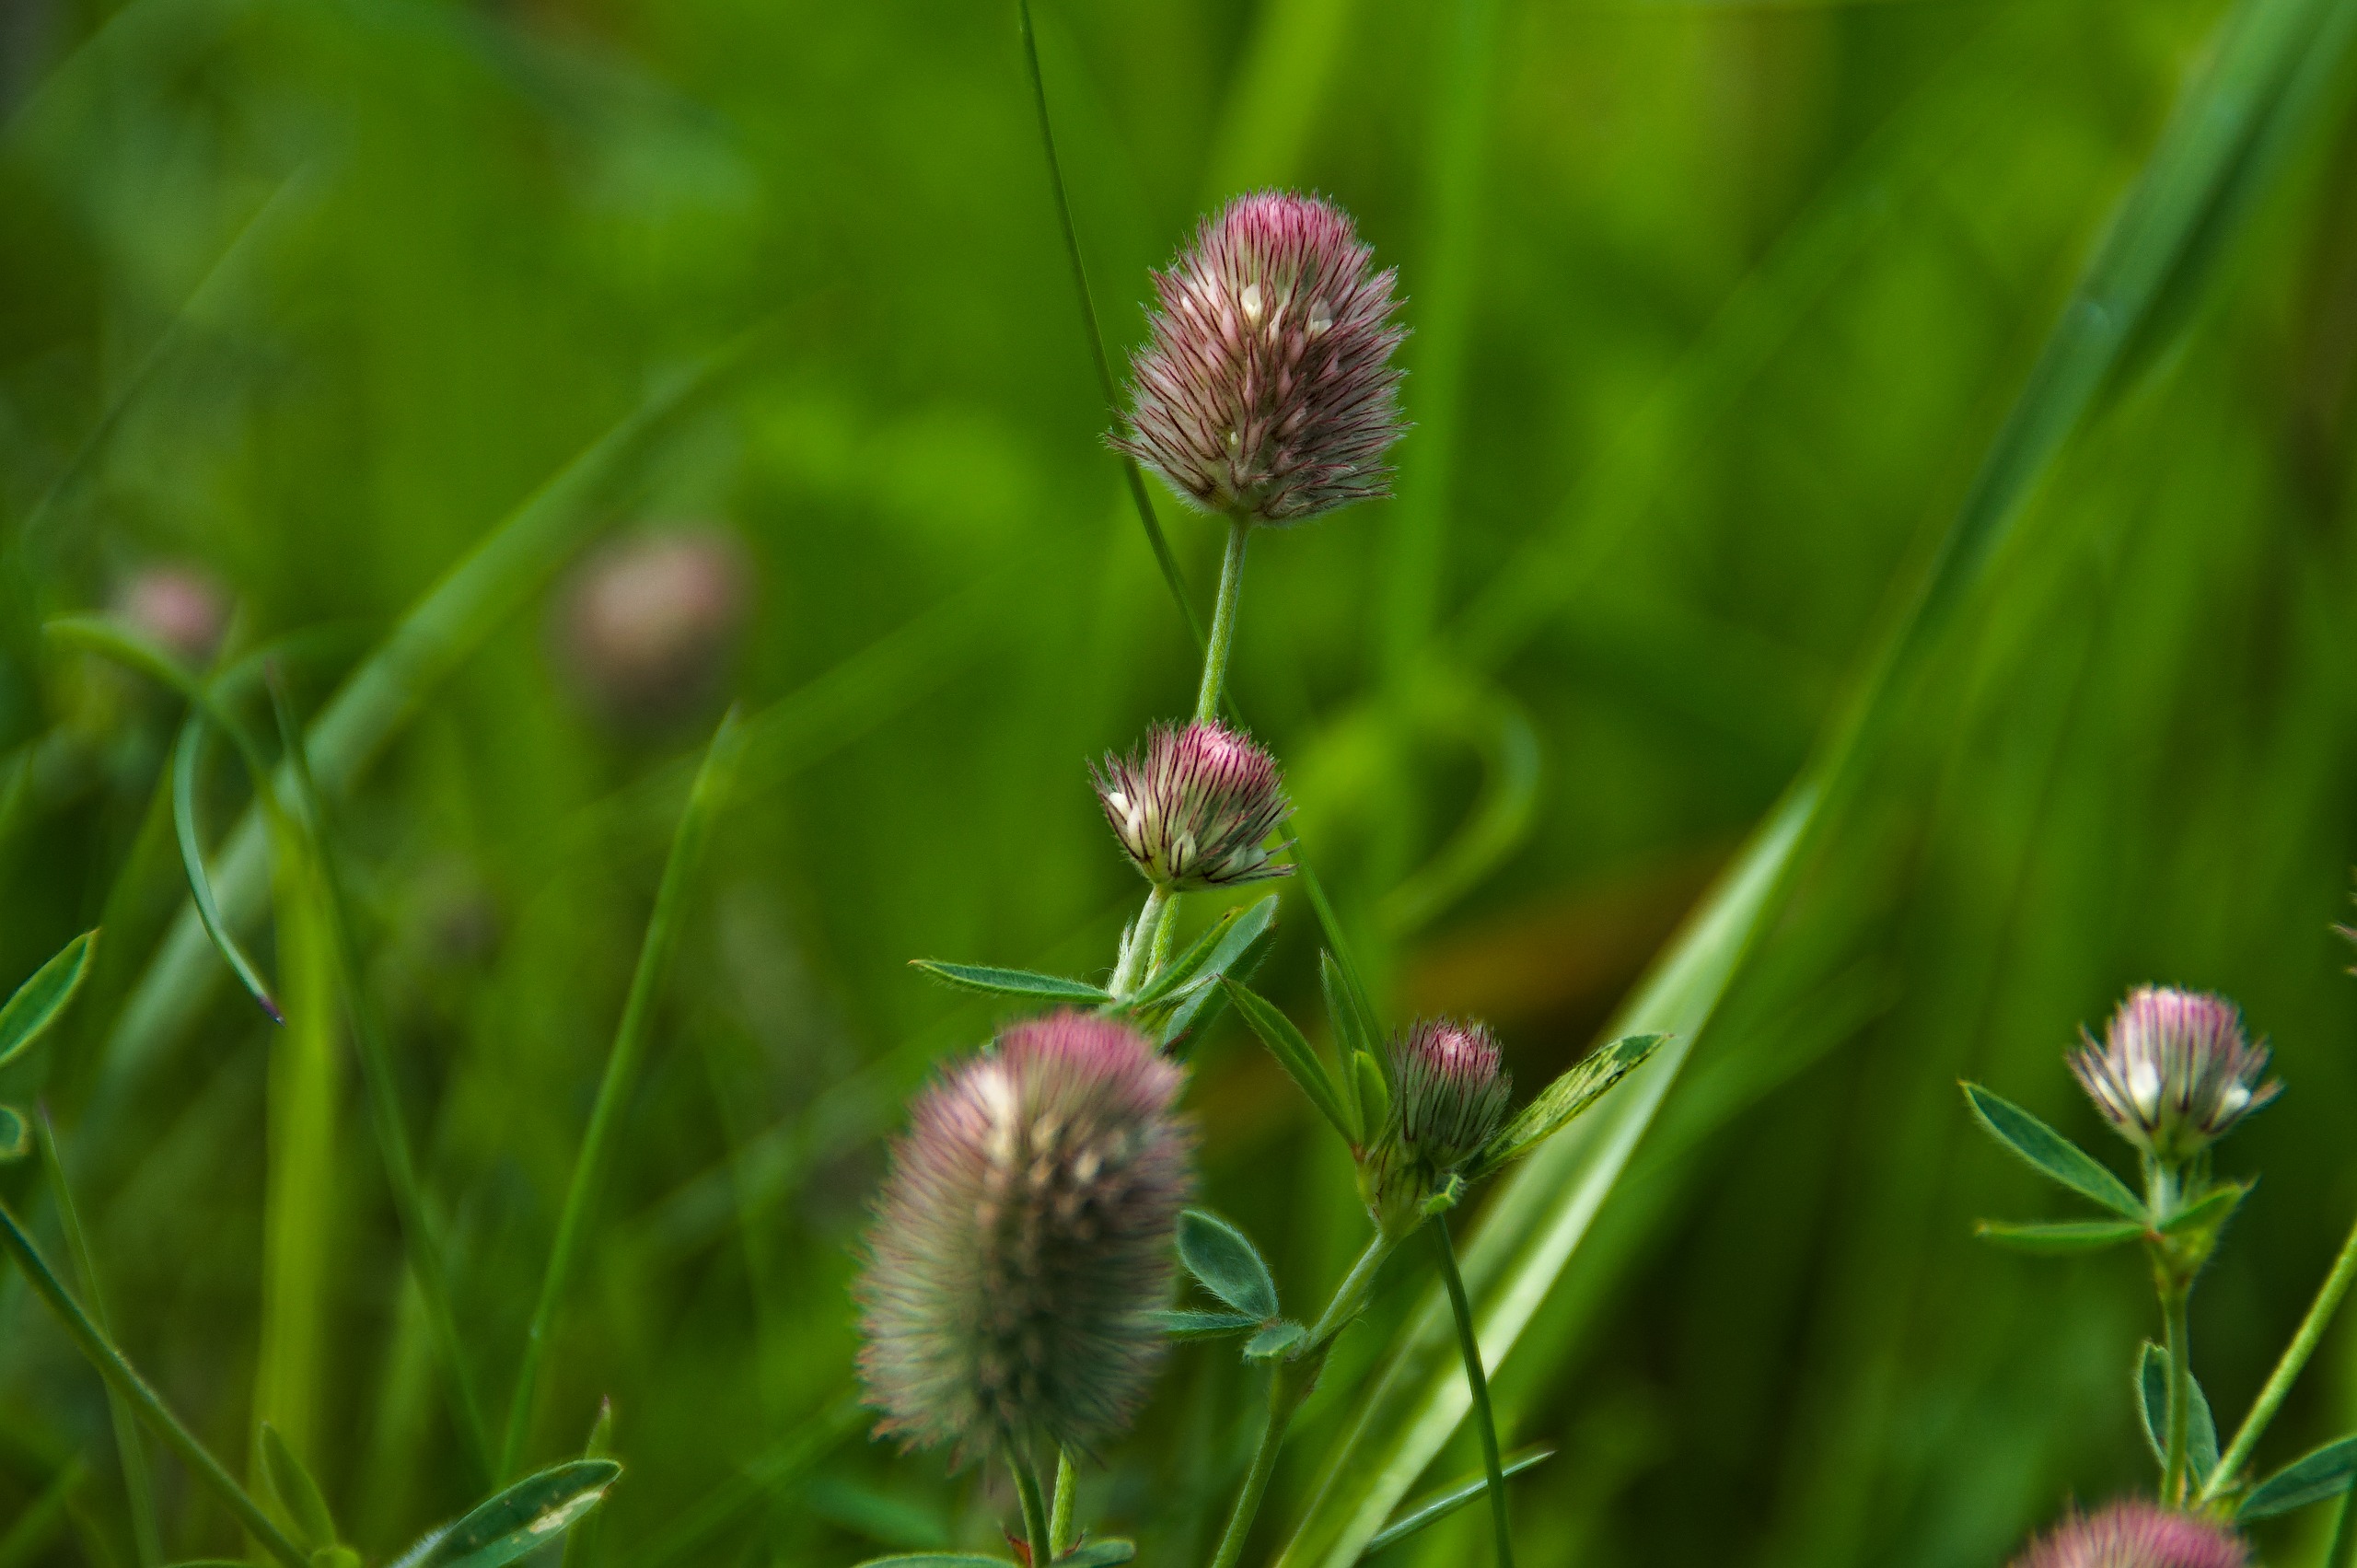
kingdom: Plantae
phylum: Tracheophyta
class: Magnoliopsida
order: Fabales
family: Fabaceae
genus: Trifolium
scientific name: Trifolium arvense
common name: Hare-kløver
